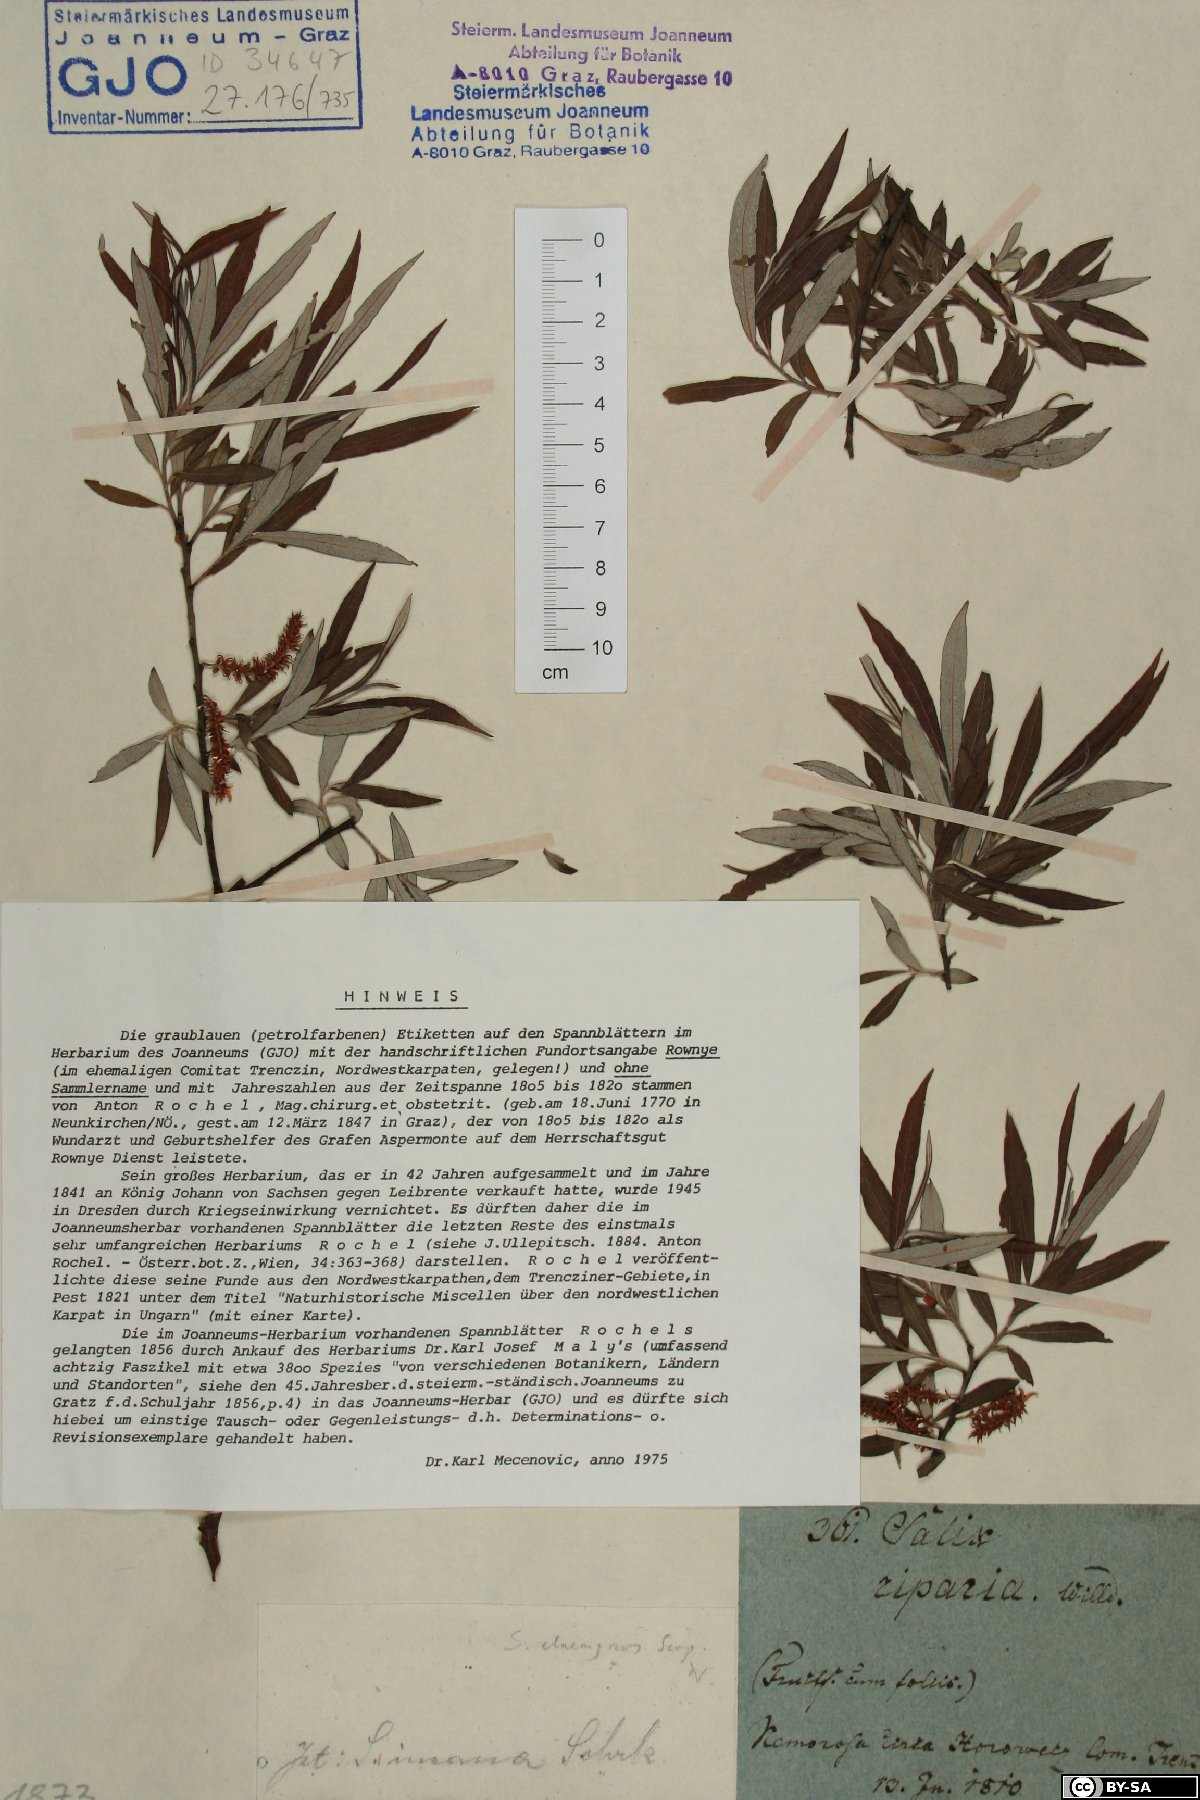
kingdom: Plantae
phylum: Tracheophyta
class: Magnoliopsida
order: Malpighiales
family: Salicaceae
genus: Salix
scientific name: Salix eleagnos
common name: Elaeagnus willow
